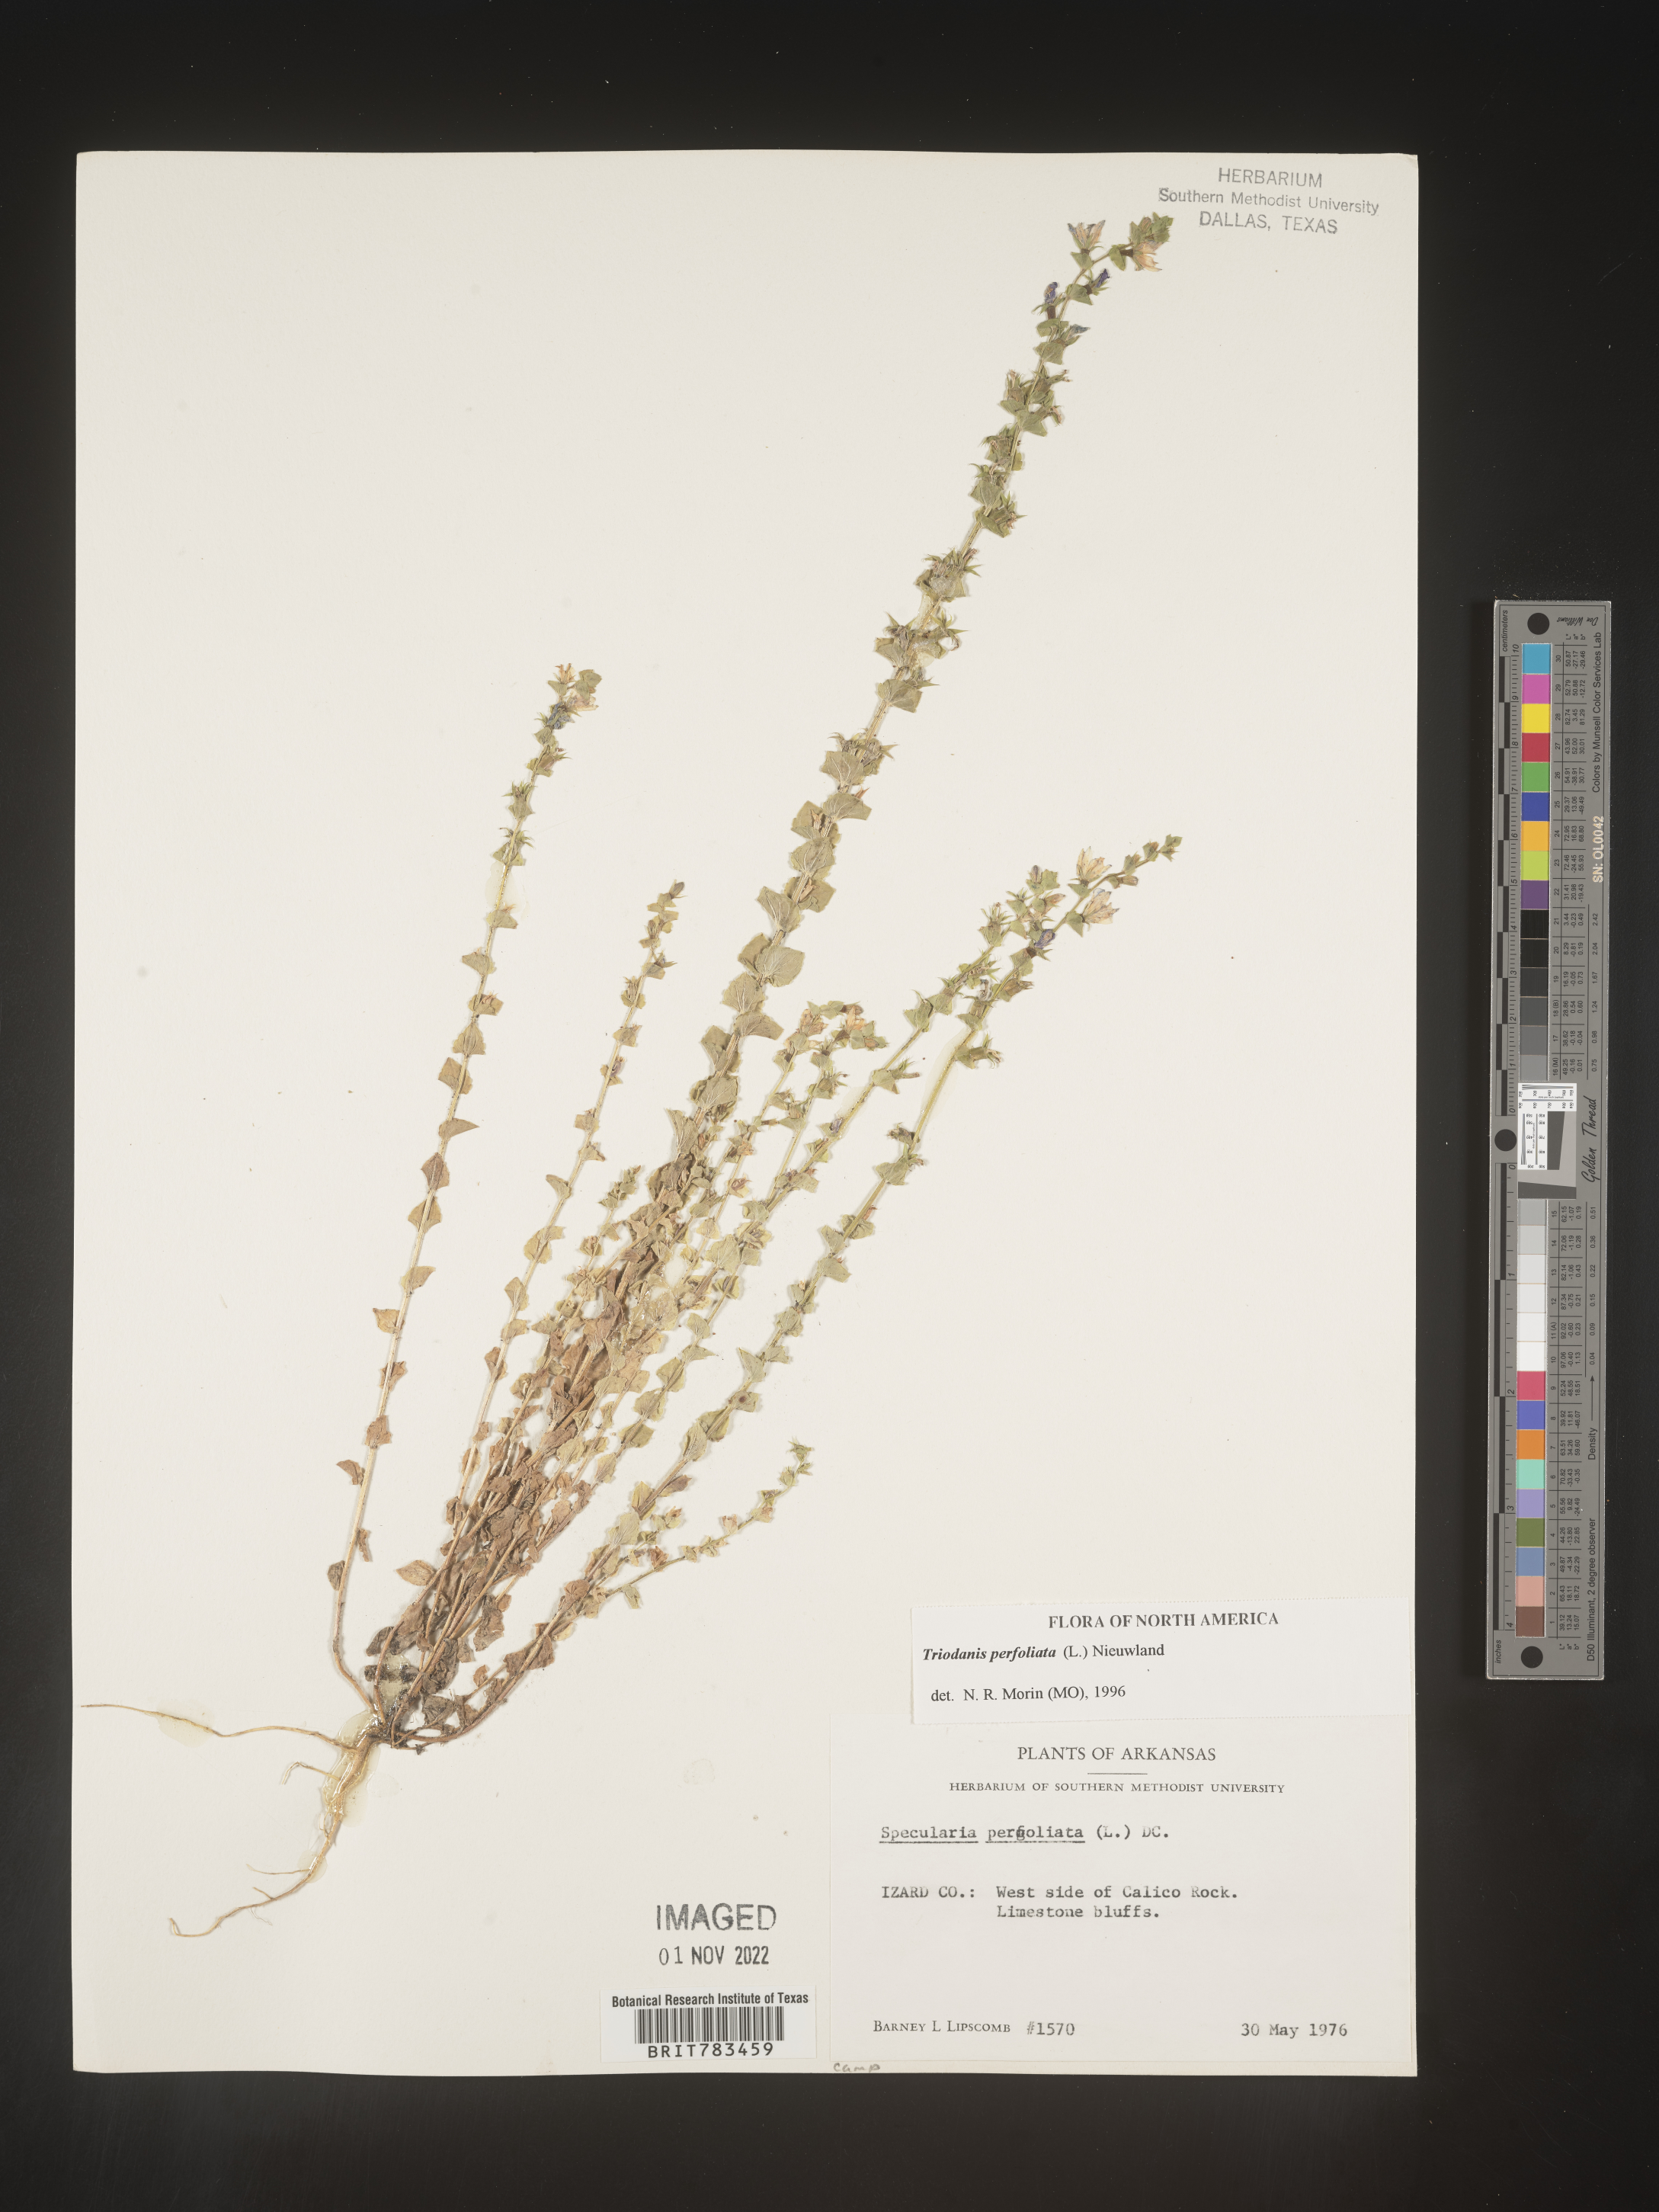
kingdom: Plantae
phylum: Tracheophyta
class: Magnoliopsida
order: Asterales
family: Campanulaceae
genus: Triodanis
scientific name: Triodanis perfoliata
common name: Clasping venus' looking-glass
